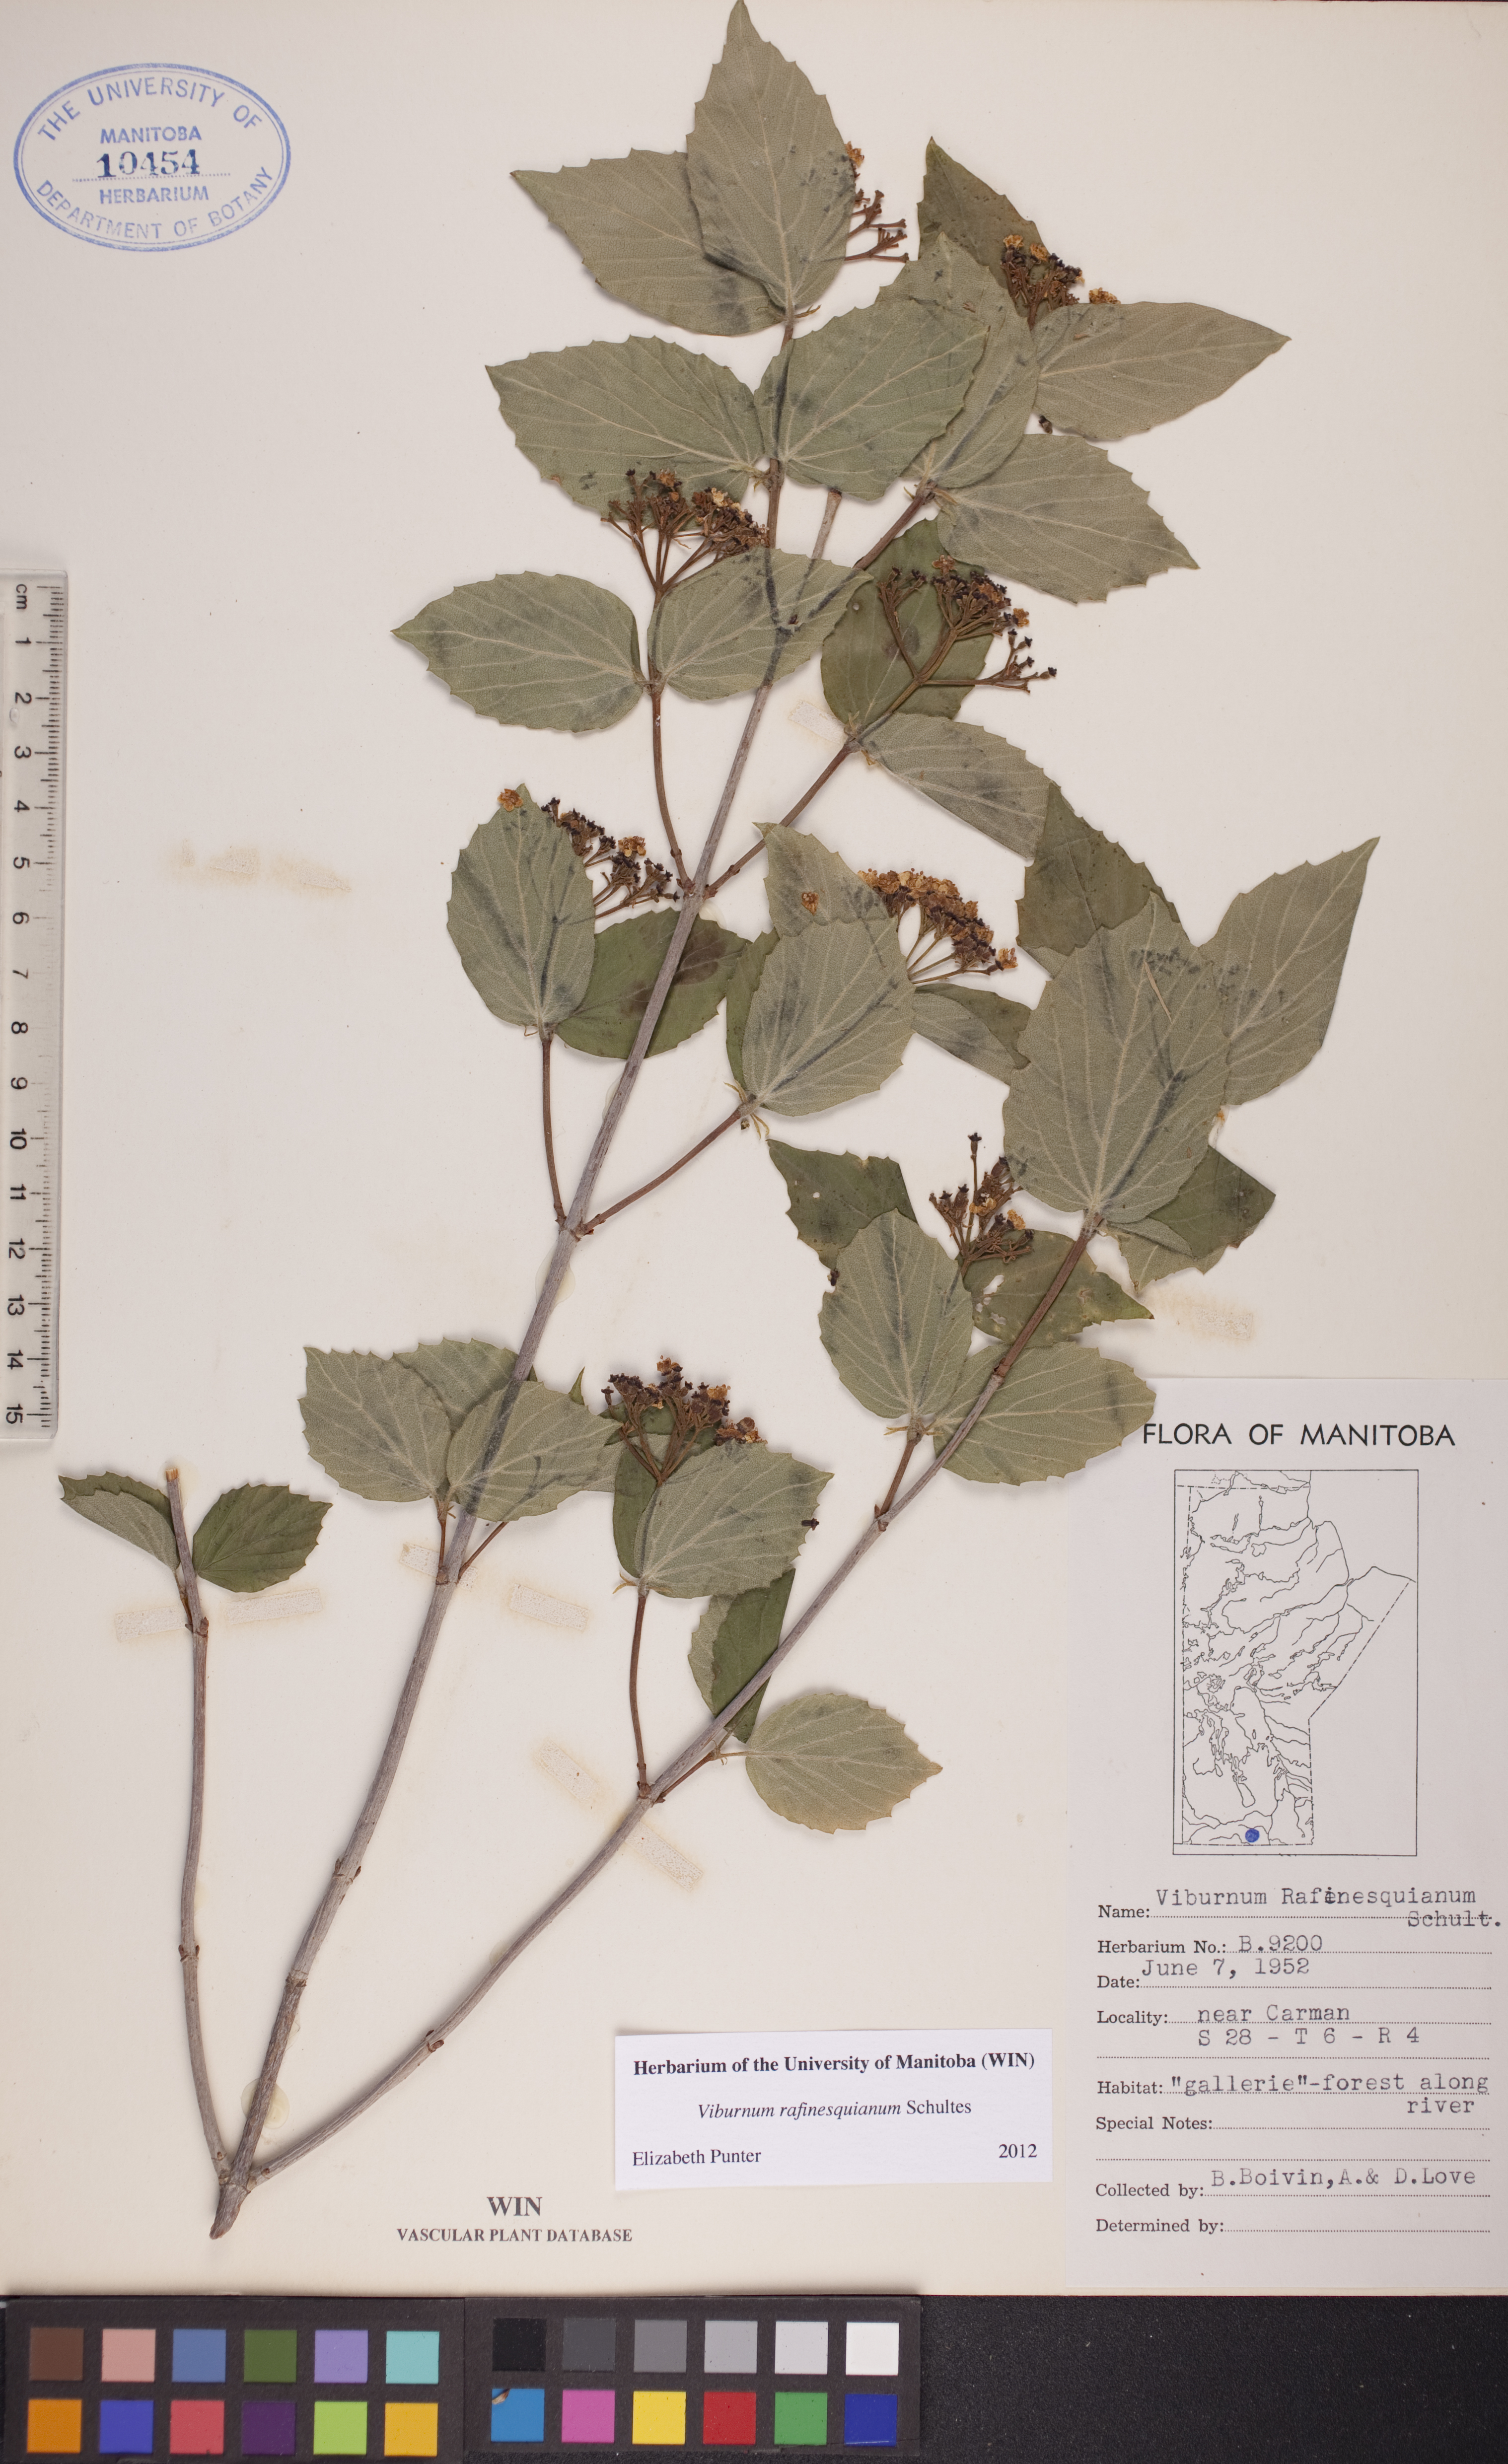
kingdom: Plantae
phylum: Tracheophyta
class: Magnoliopsida
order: Dipsacales
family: Viburnaceae
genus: Viburnum
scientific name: Viburnum rafinesquianum
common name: Downy arrow-wood
